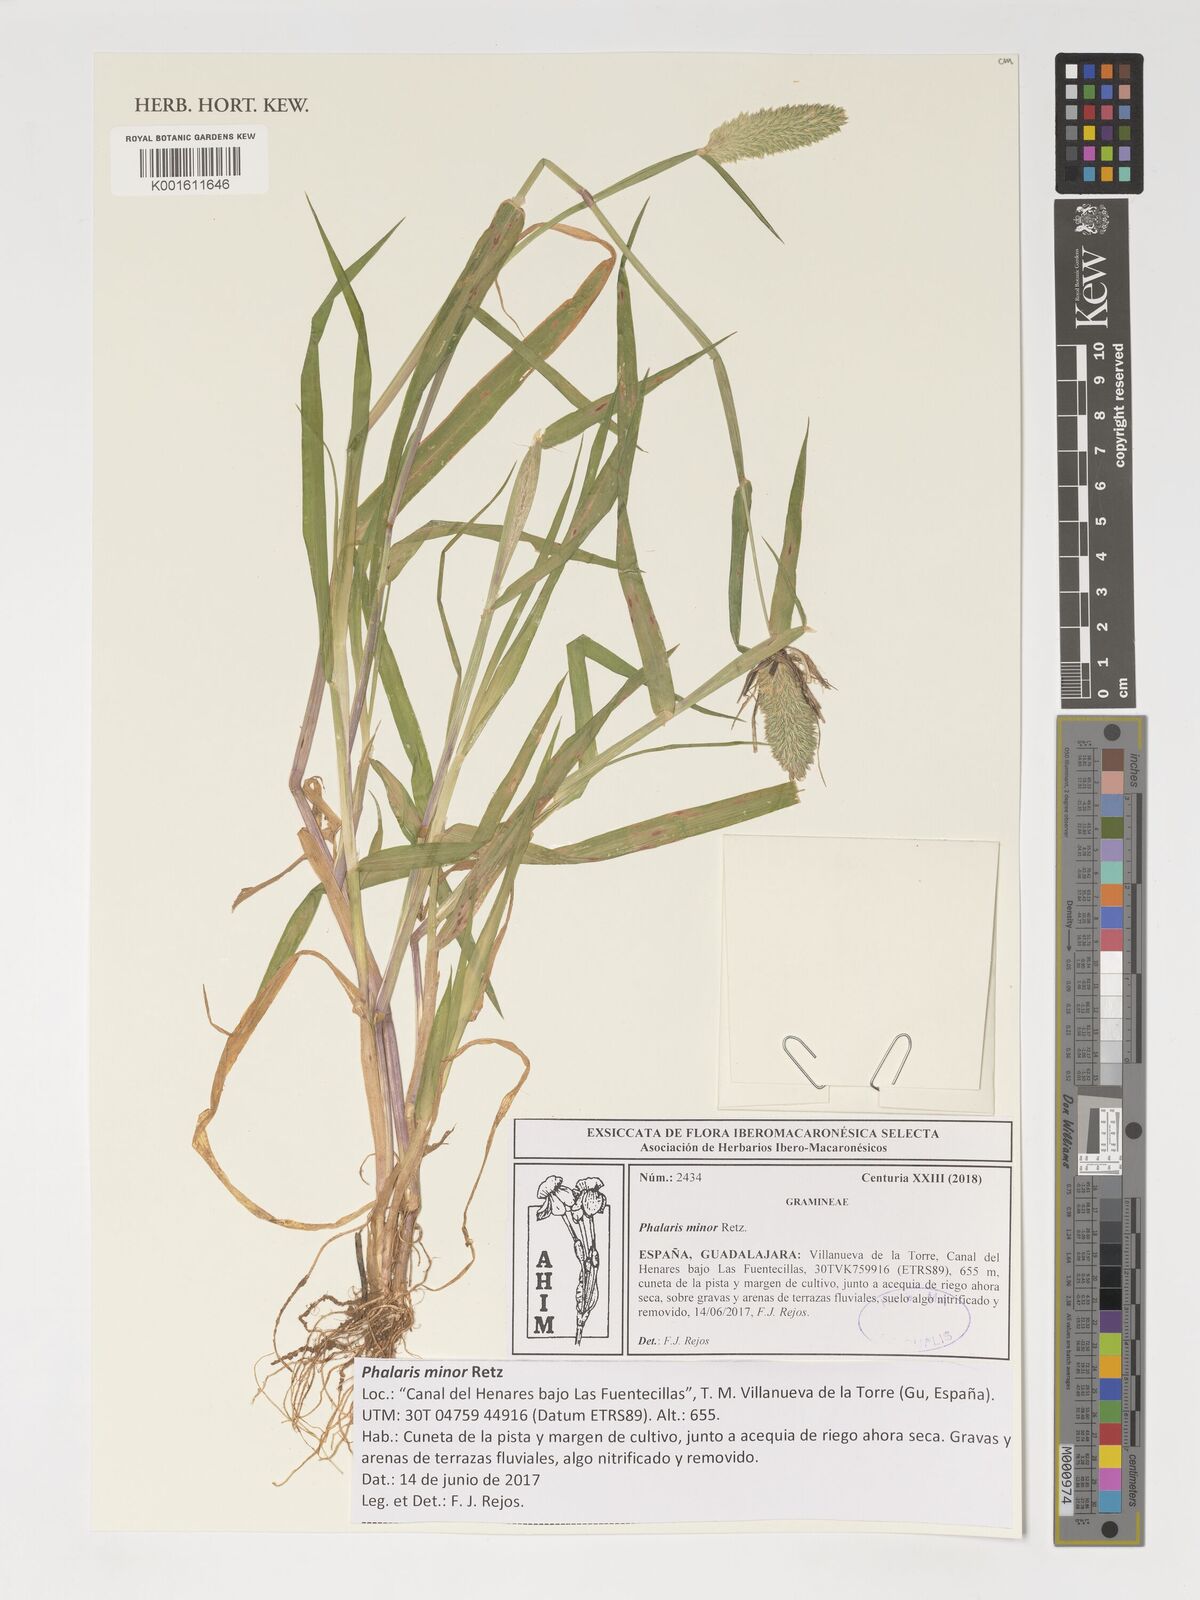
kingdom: Plantae
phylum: Tracheophyta
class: Liliopsida
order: Poales
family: Poaceae
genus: Phalaris
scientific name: Phalaris minor
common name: Littleseed canarygrass
